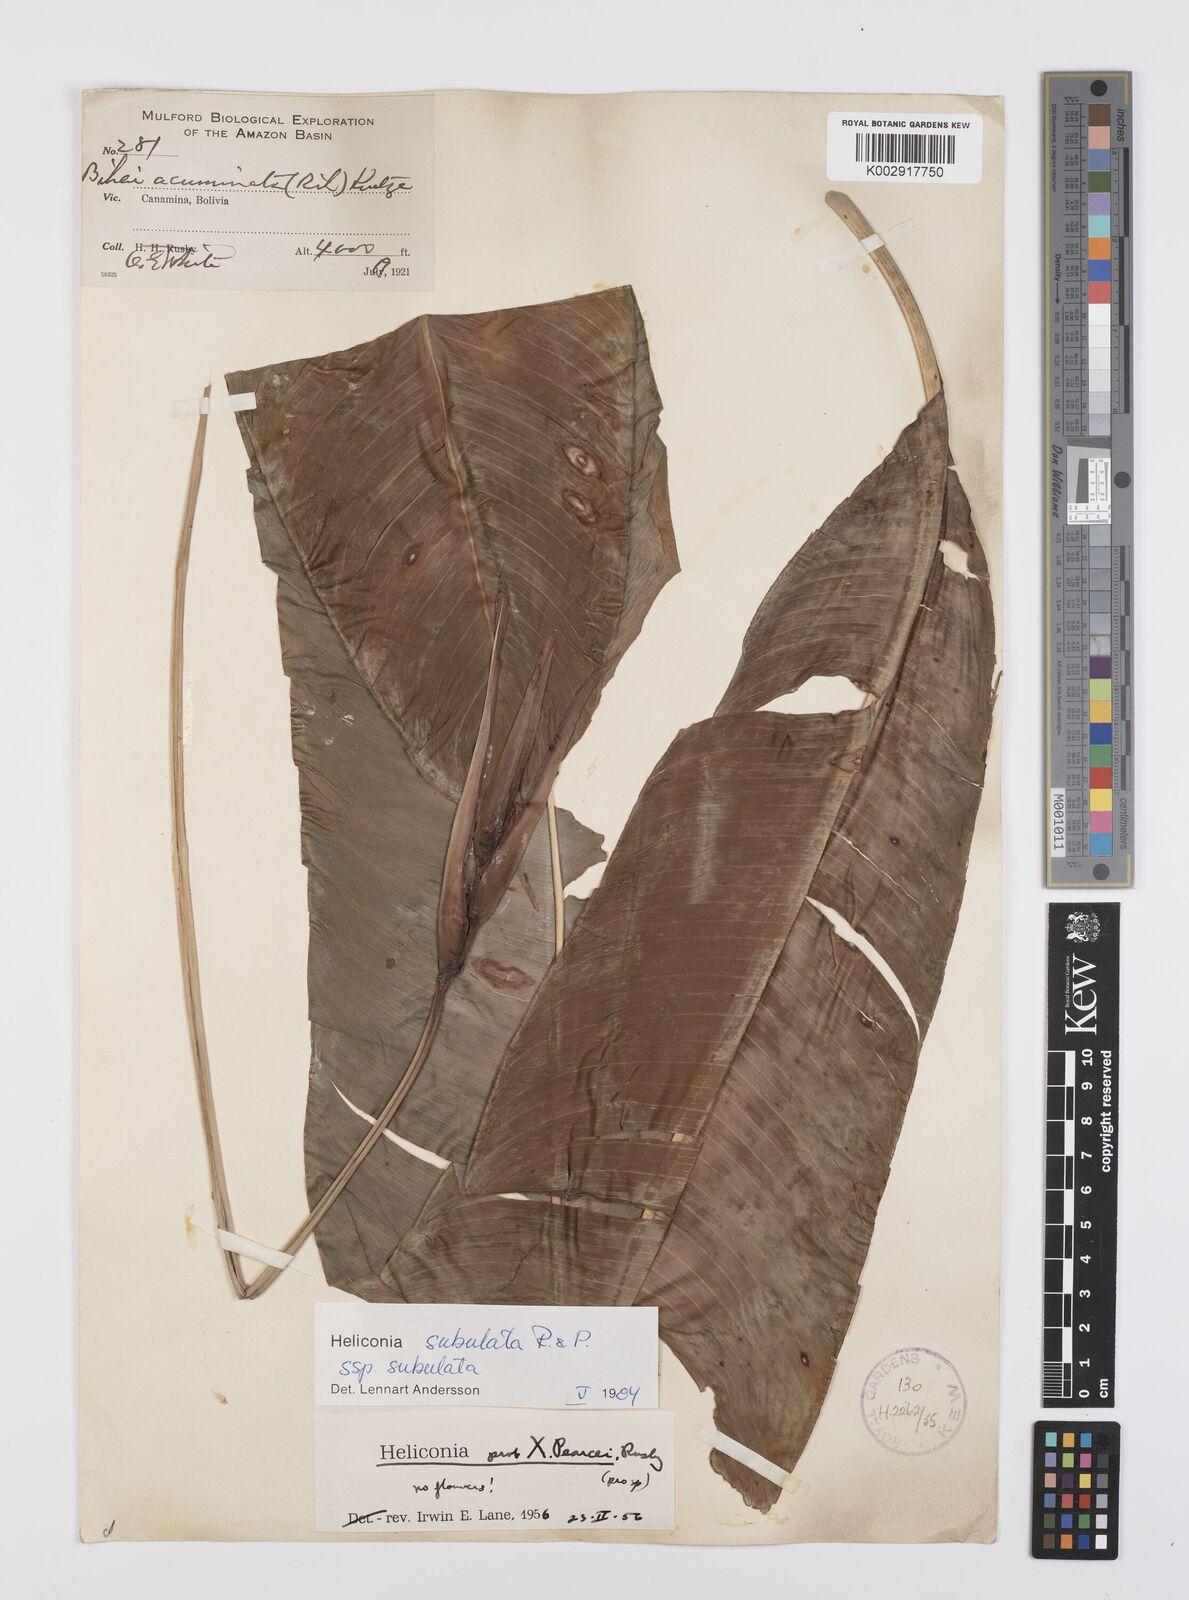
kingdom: Plantae
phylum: Tracheophyta
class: Liliopsida
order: Zingiberales
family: Heliconiaceae
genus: Heliconia
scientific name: Heliconia subulata
